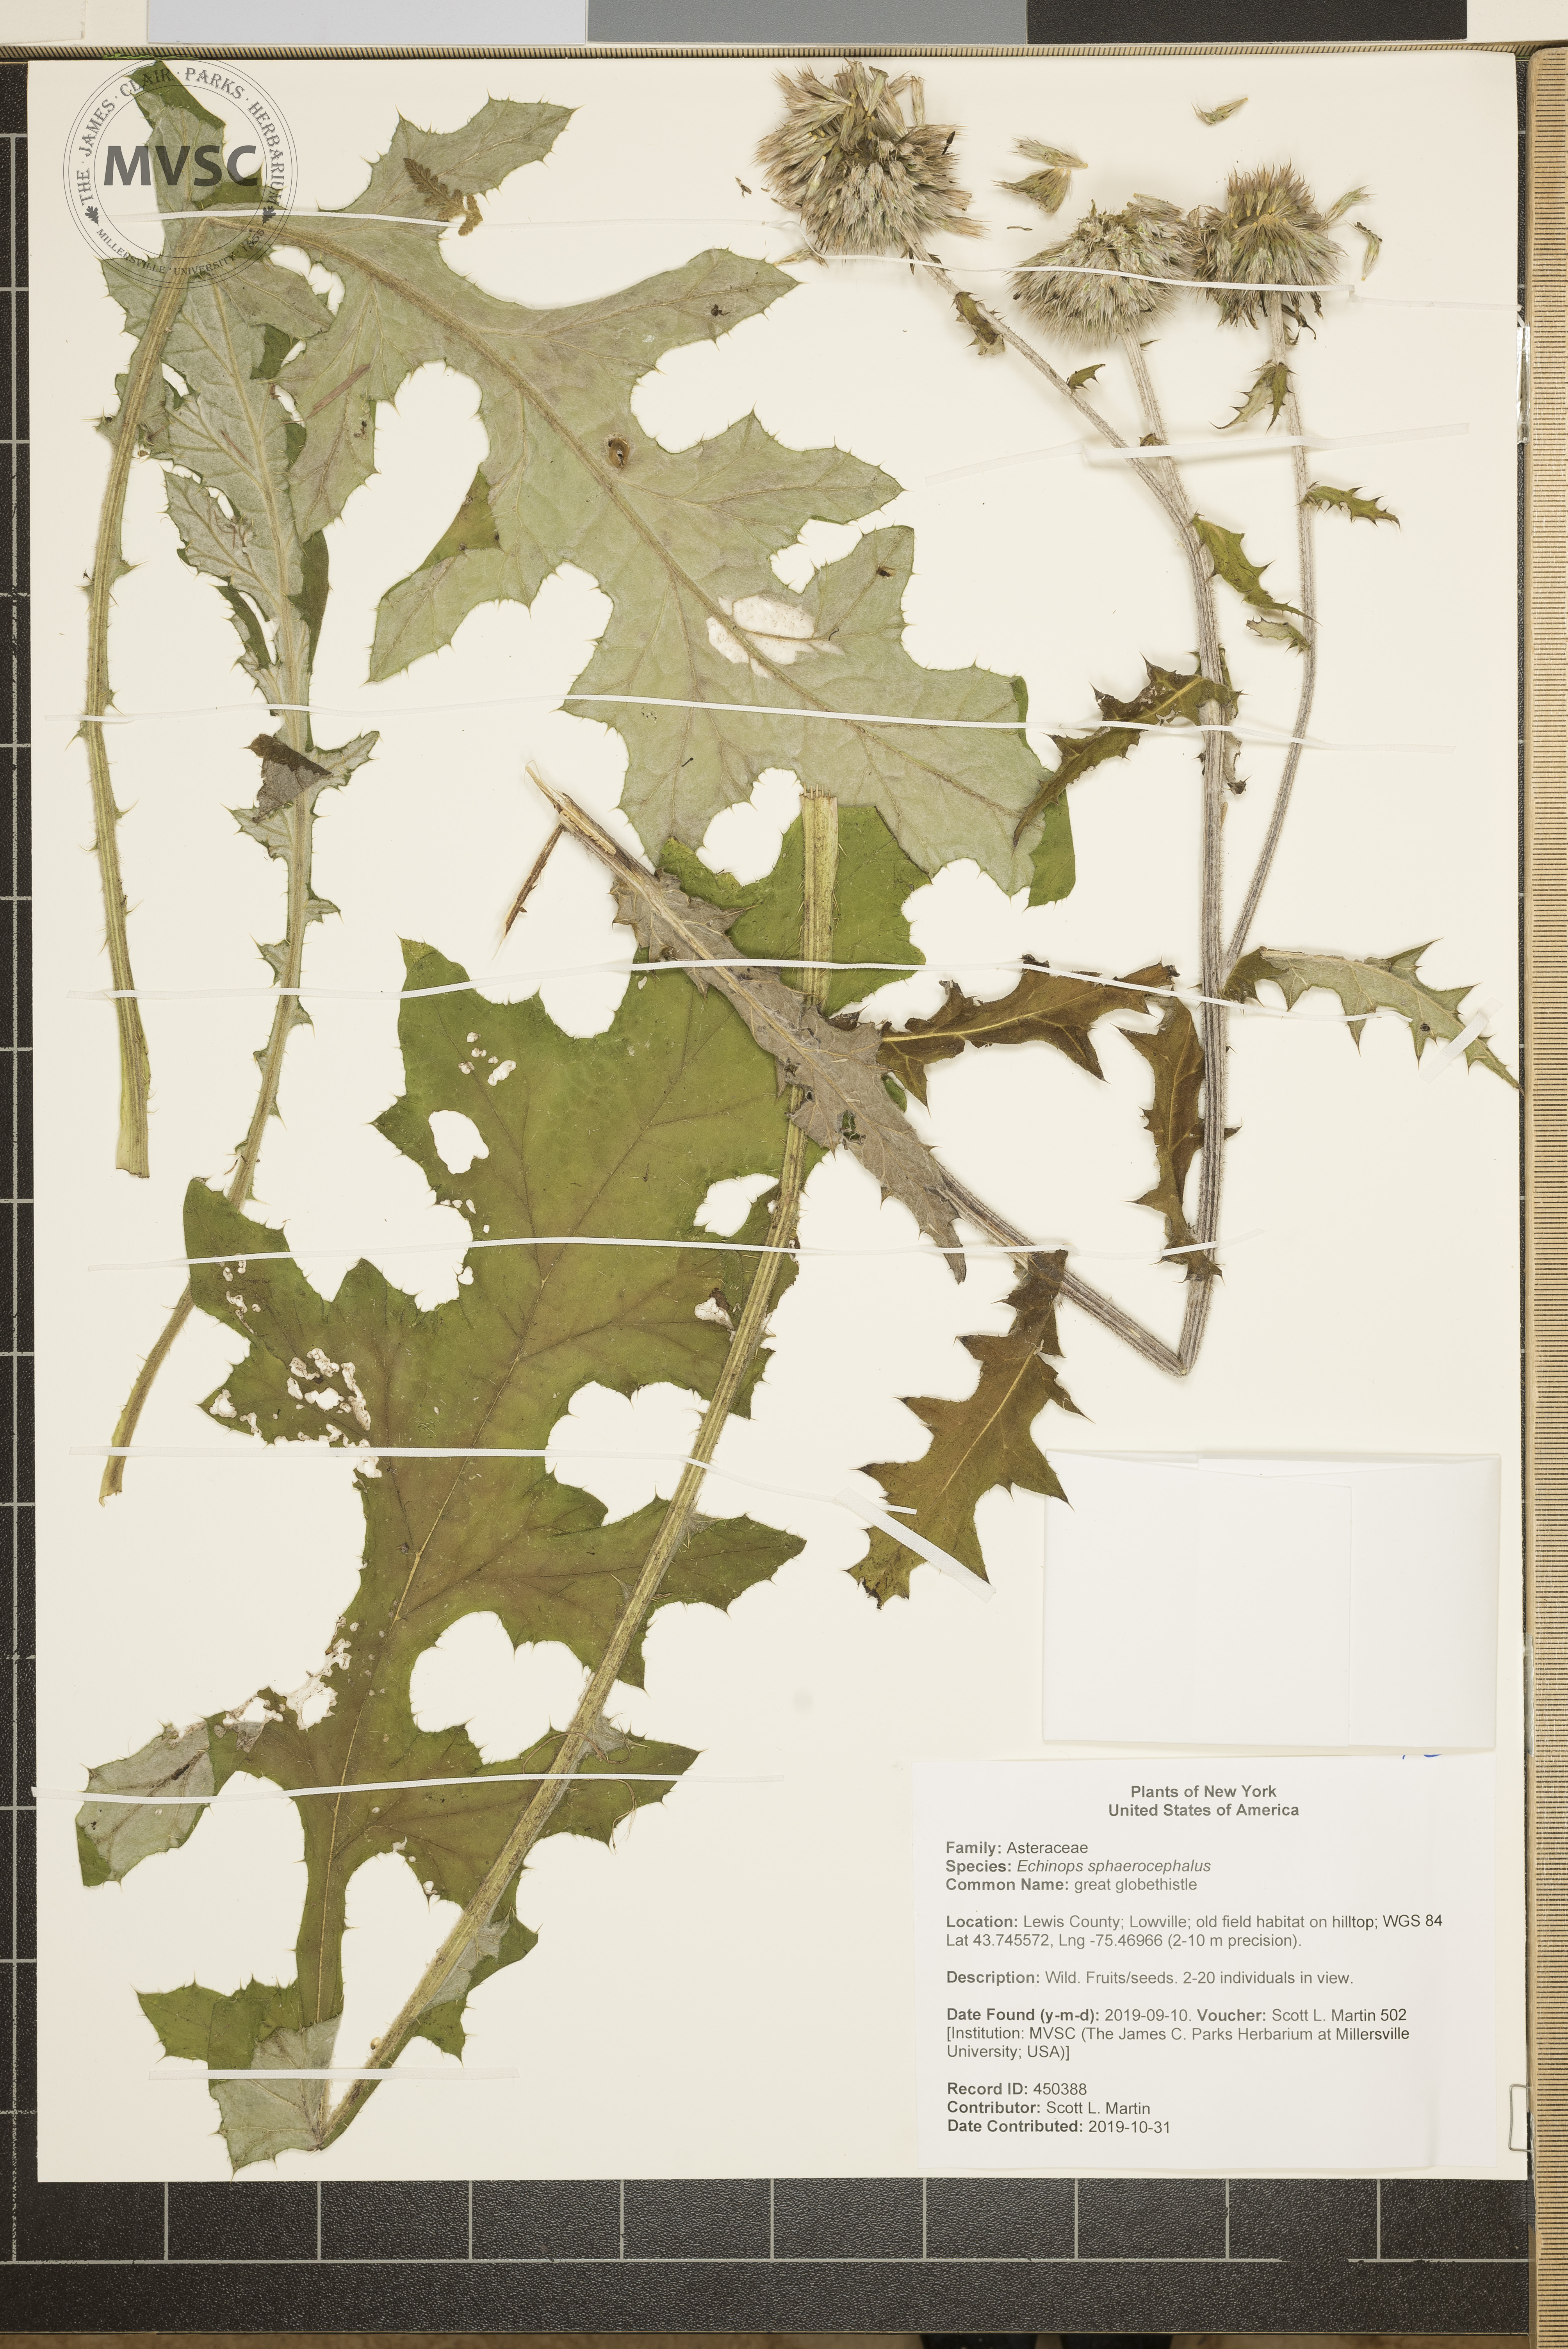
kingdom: Plantae
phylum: Tracheophyta
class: Magnoliopsida
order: Asterales
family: Asteraceae
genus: Echinops
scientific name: Echinops sphaerocephalus
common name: great globethistle
